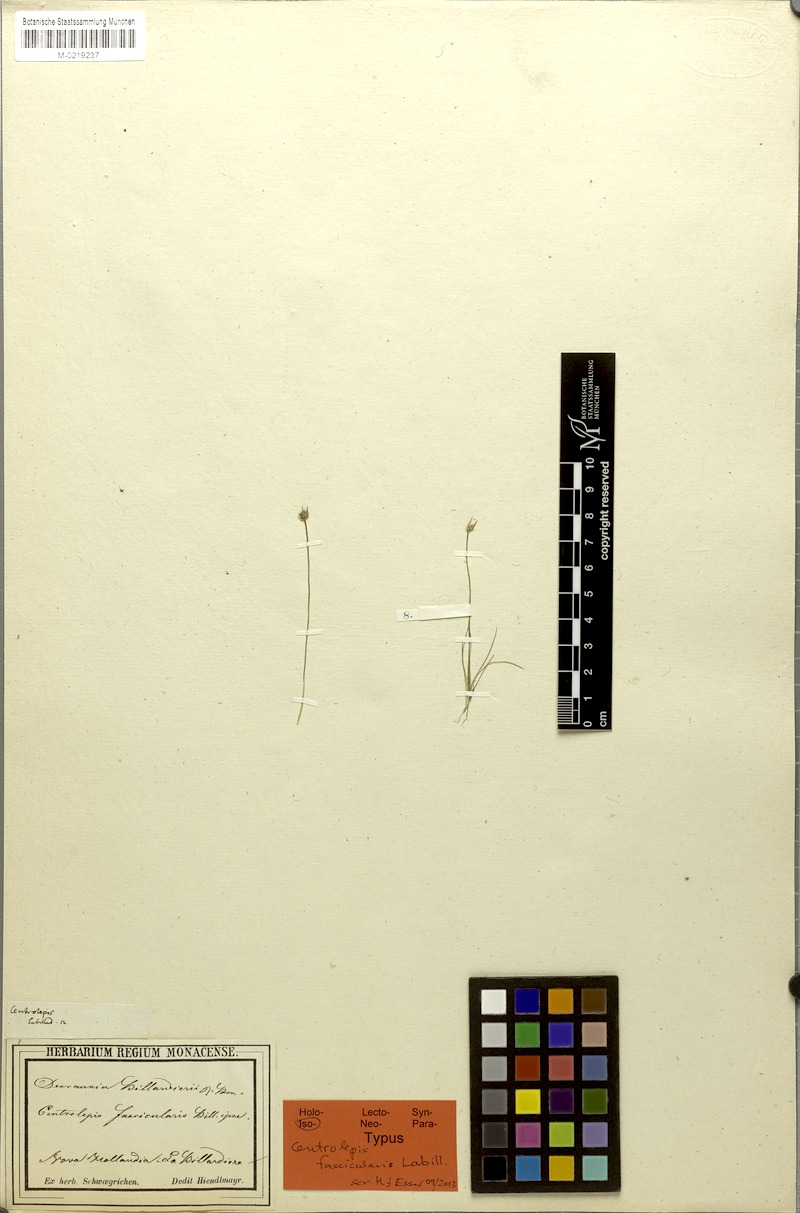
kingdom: Plantae
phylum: Tracheophyta
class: Liliopsida
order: Poales
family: Restionaceae
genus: Centrolepis
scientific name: Centrolepis fascicularis
